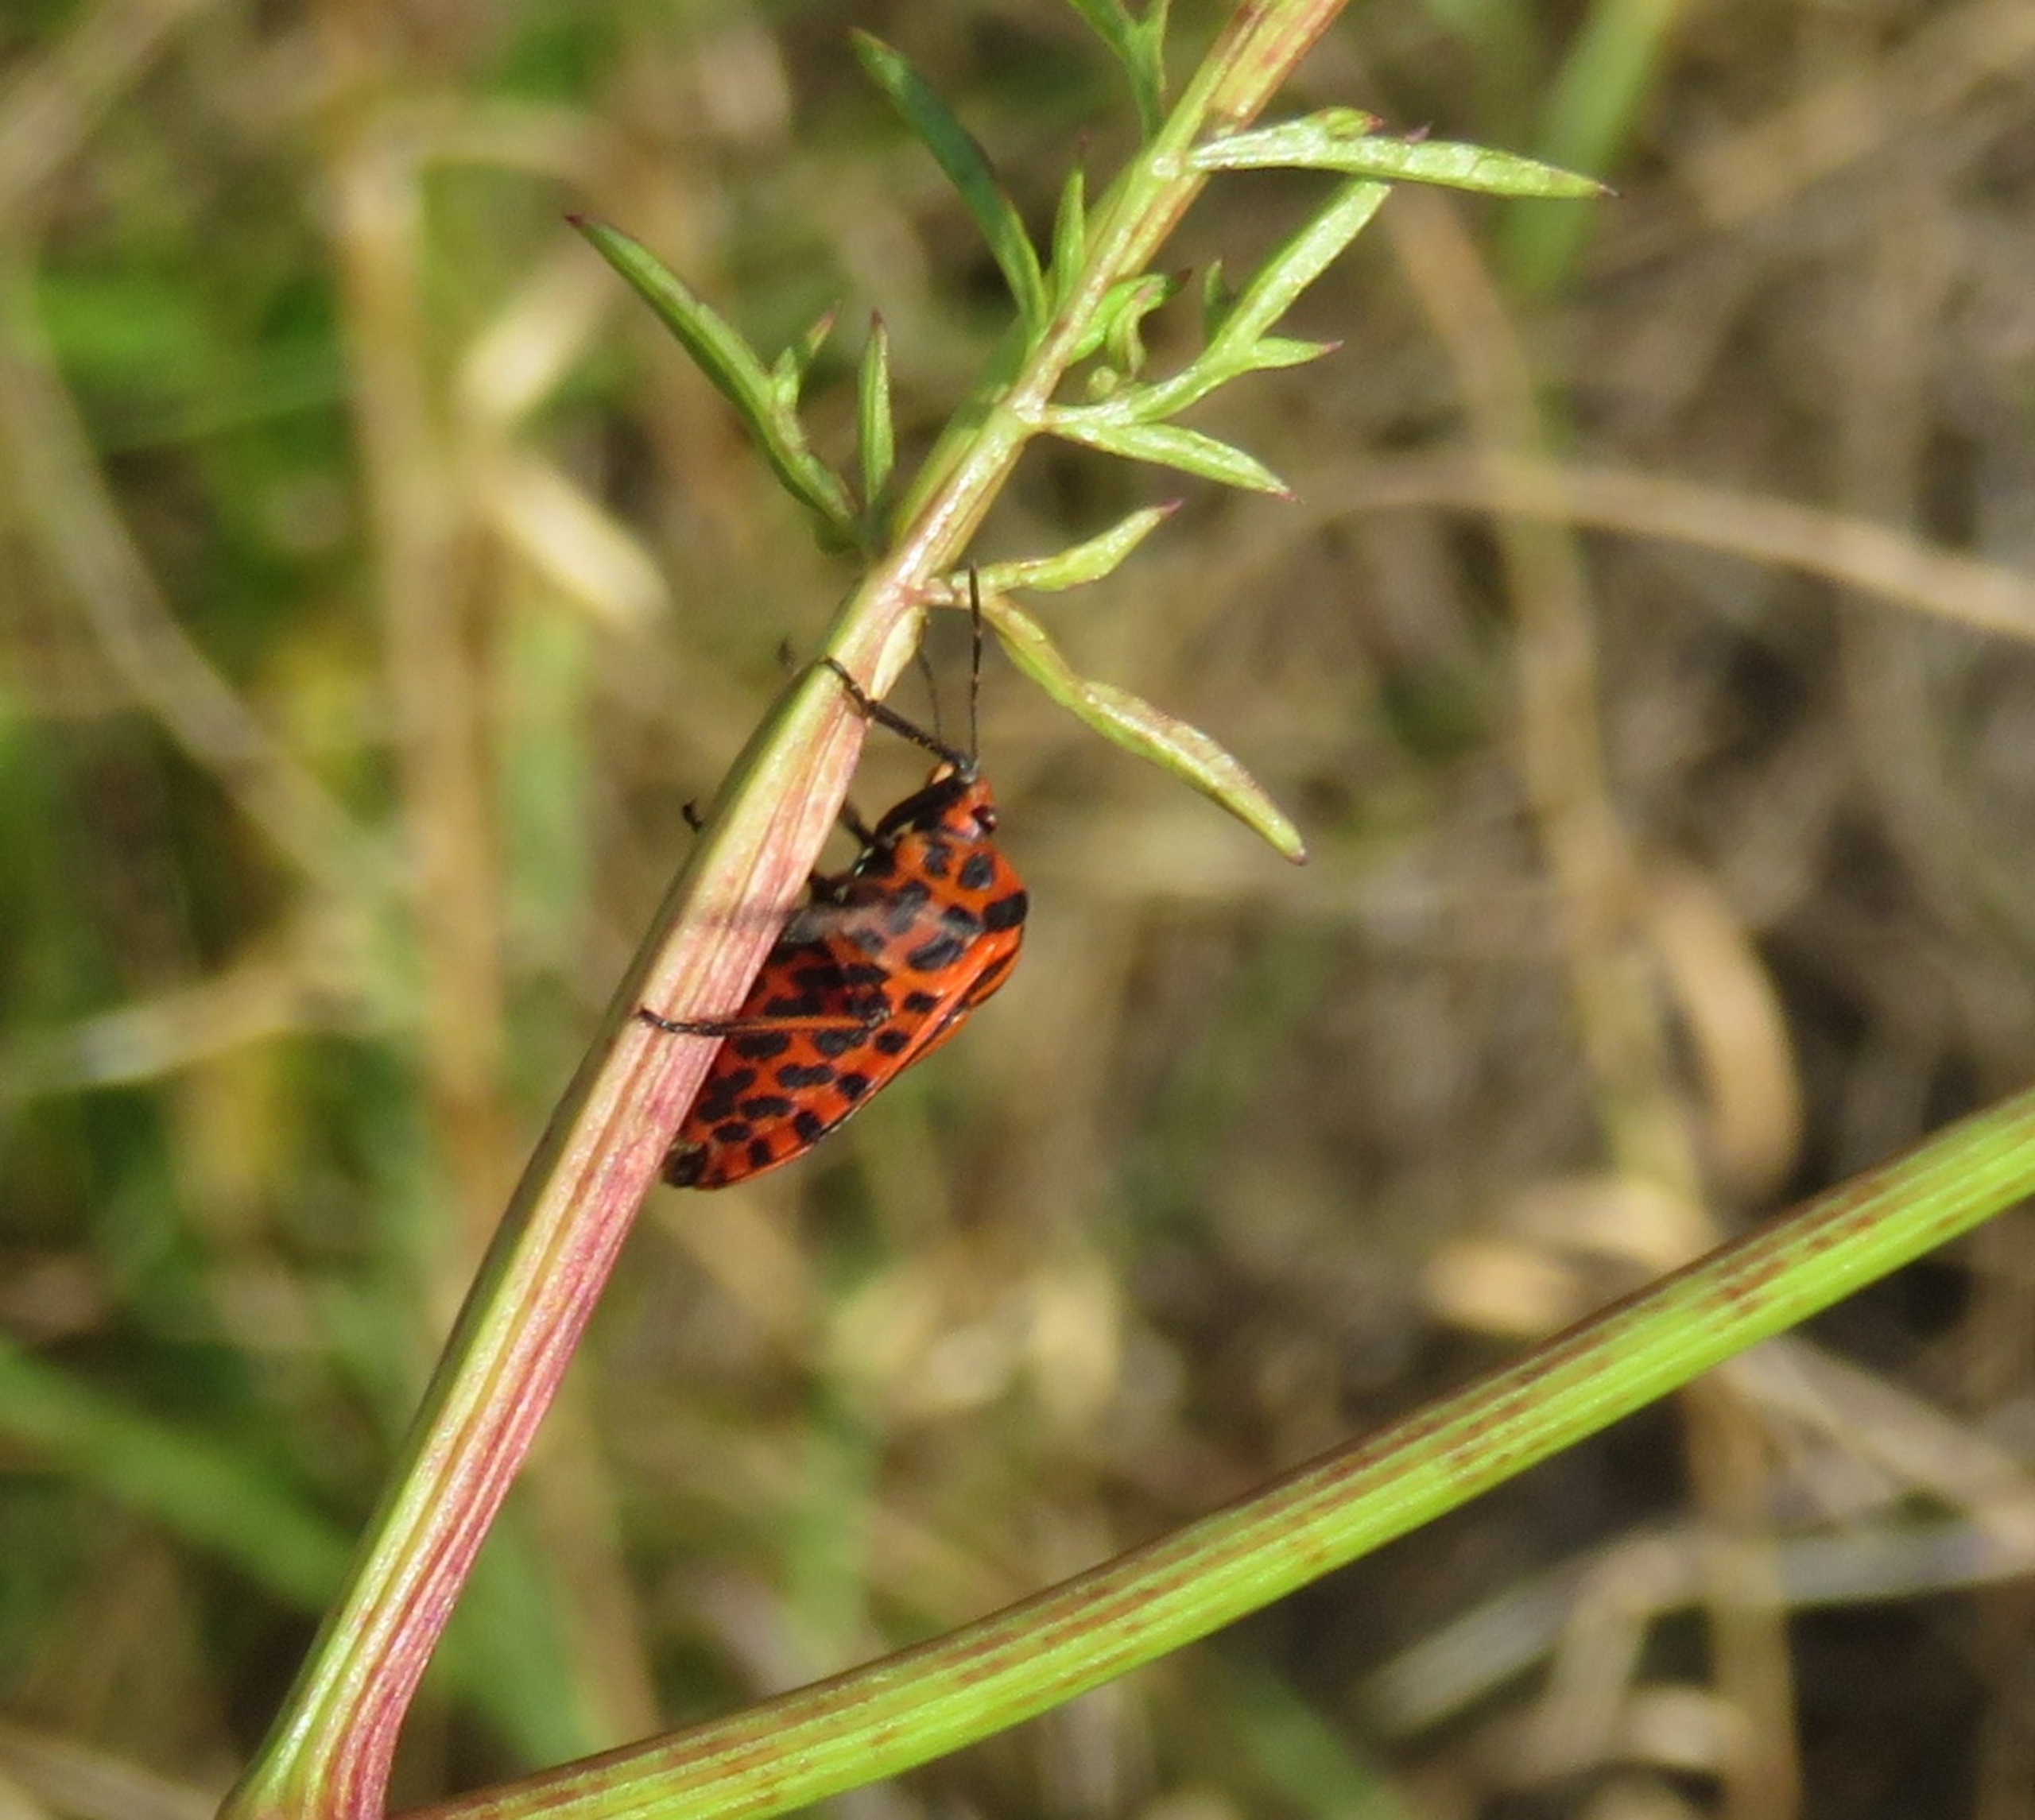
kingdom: Animalia
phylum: Arthropoda
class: Insecta
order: Hemiptera
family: Pentatomidae
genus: Graphosoma
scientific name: Graphosoma italicum
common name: Stribetæge
